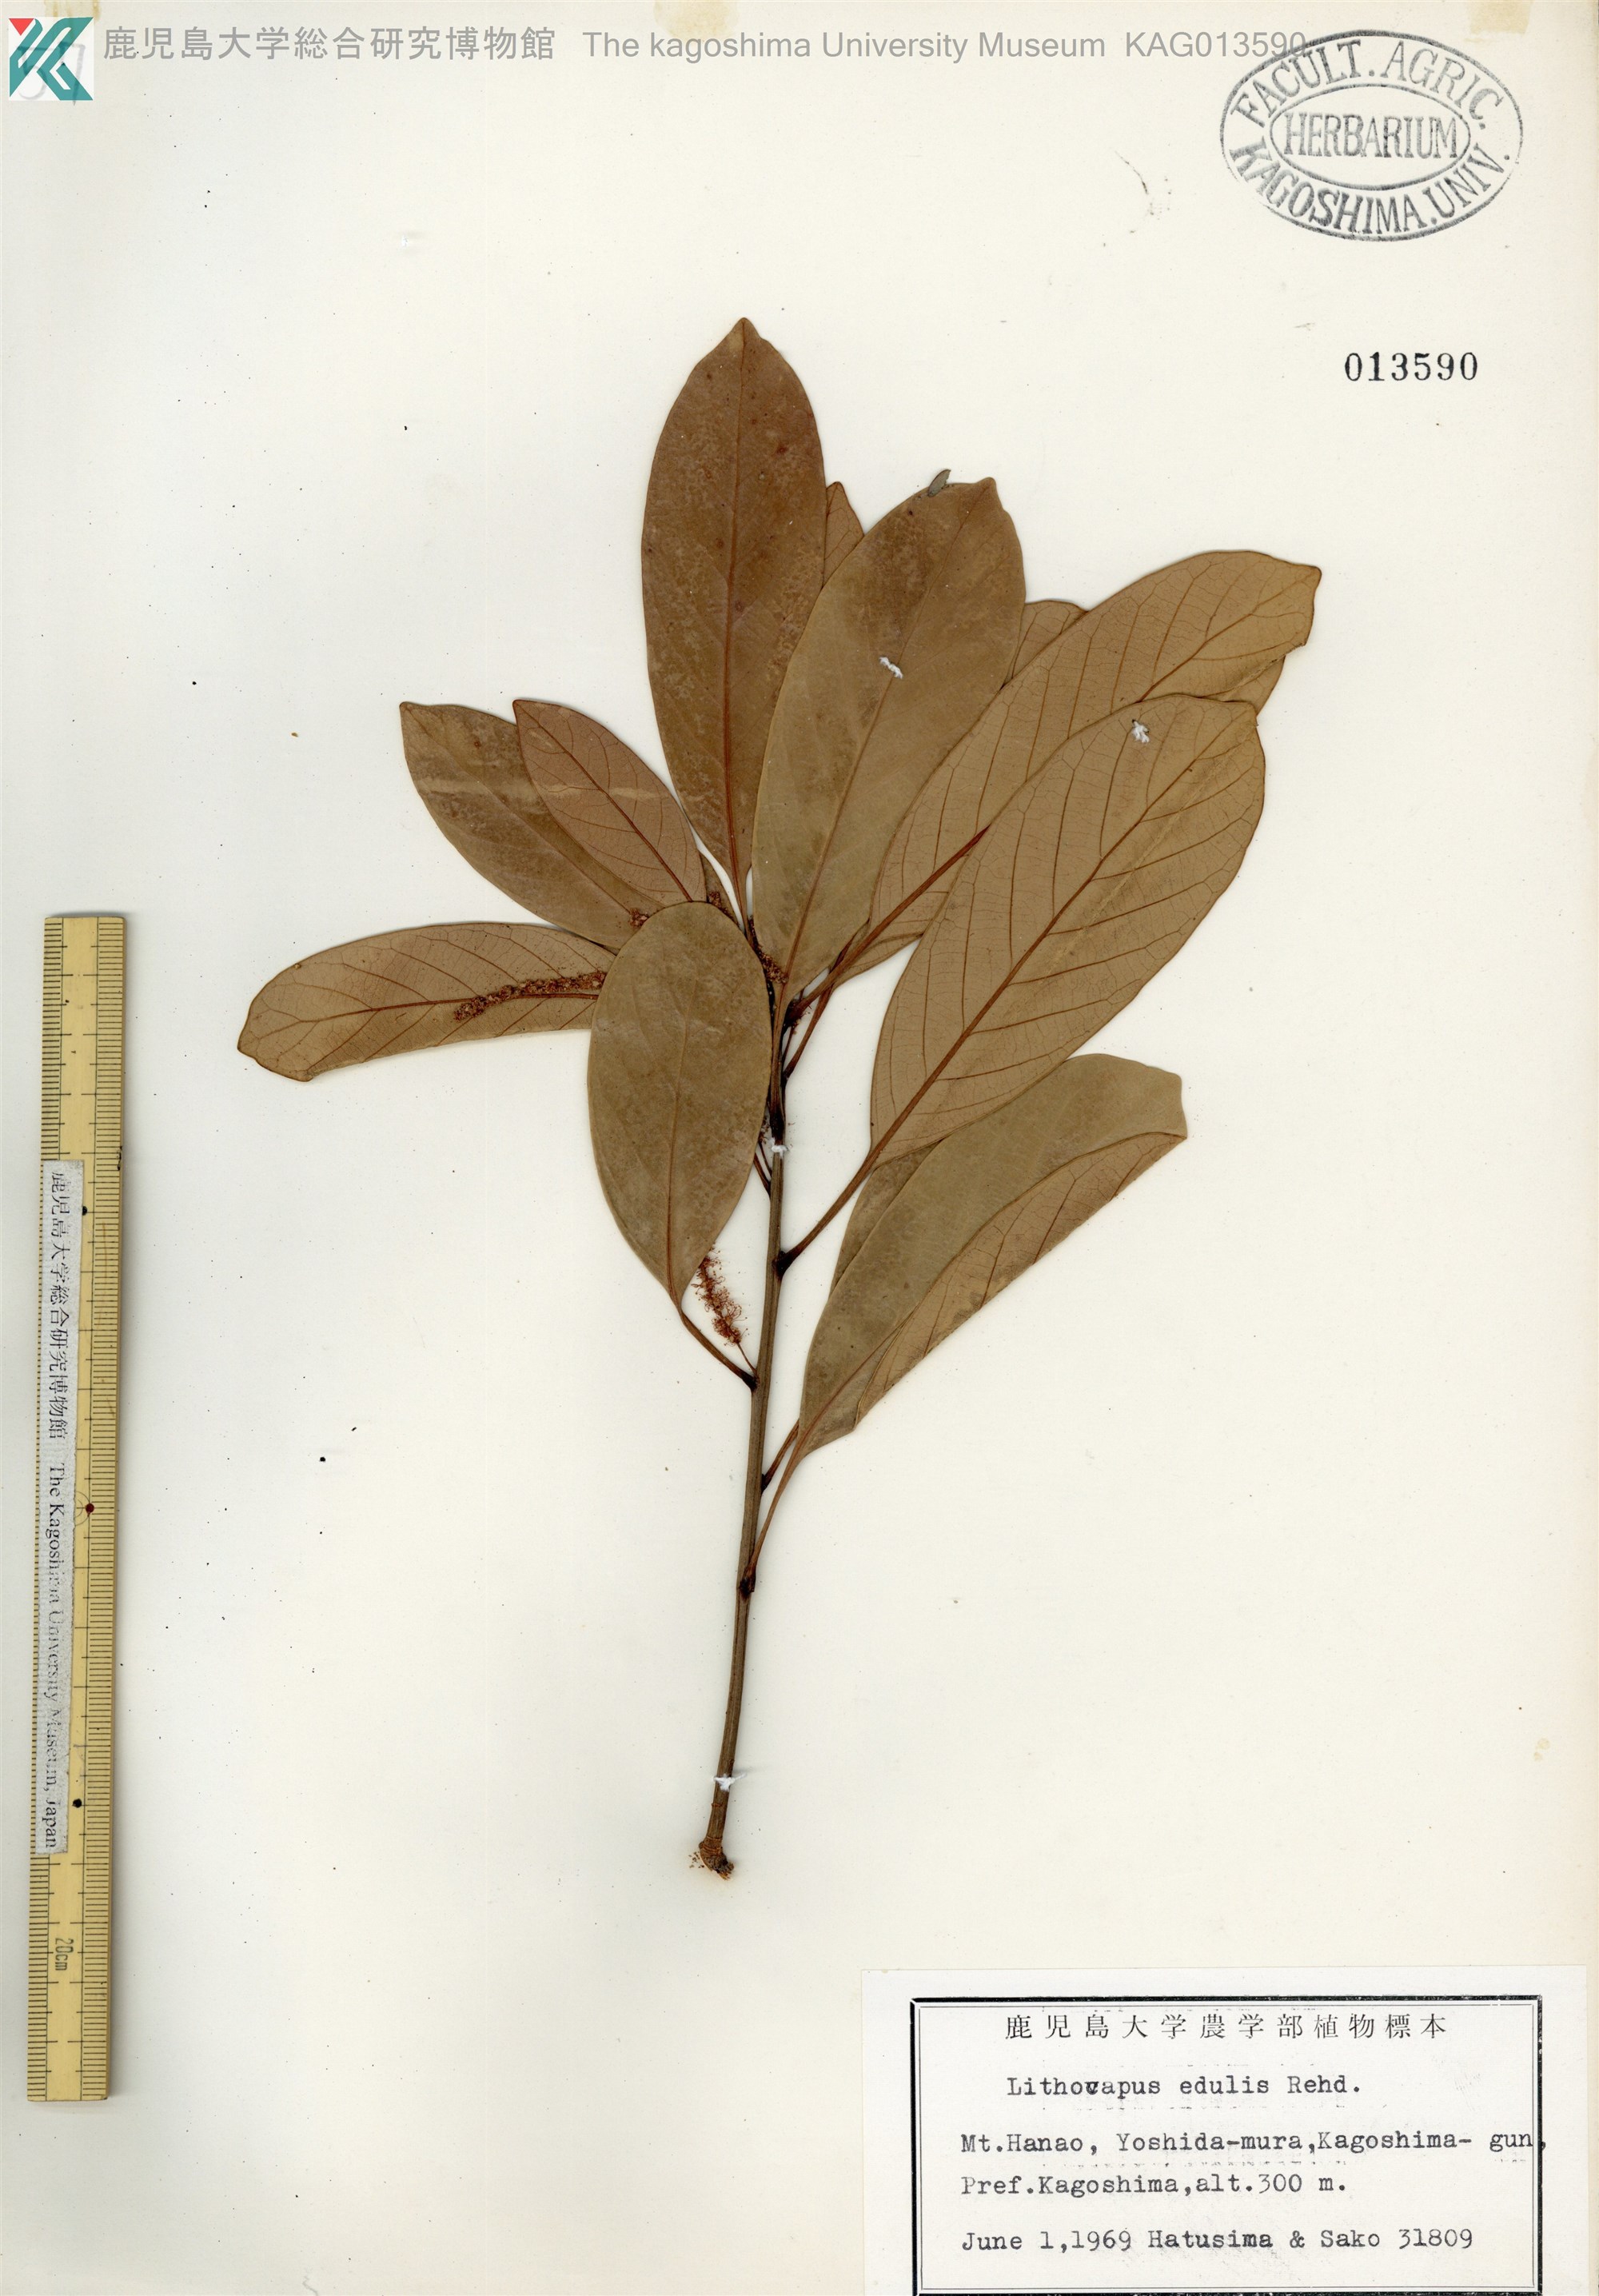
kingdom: Plantae
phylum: Tracheophyta
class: Magnoliopsida
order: Fagales
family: Fagaceae
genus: Lithocarpus
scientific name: Lithocarpus edulis
